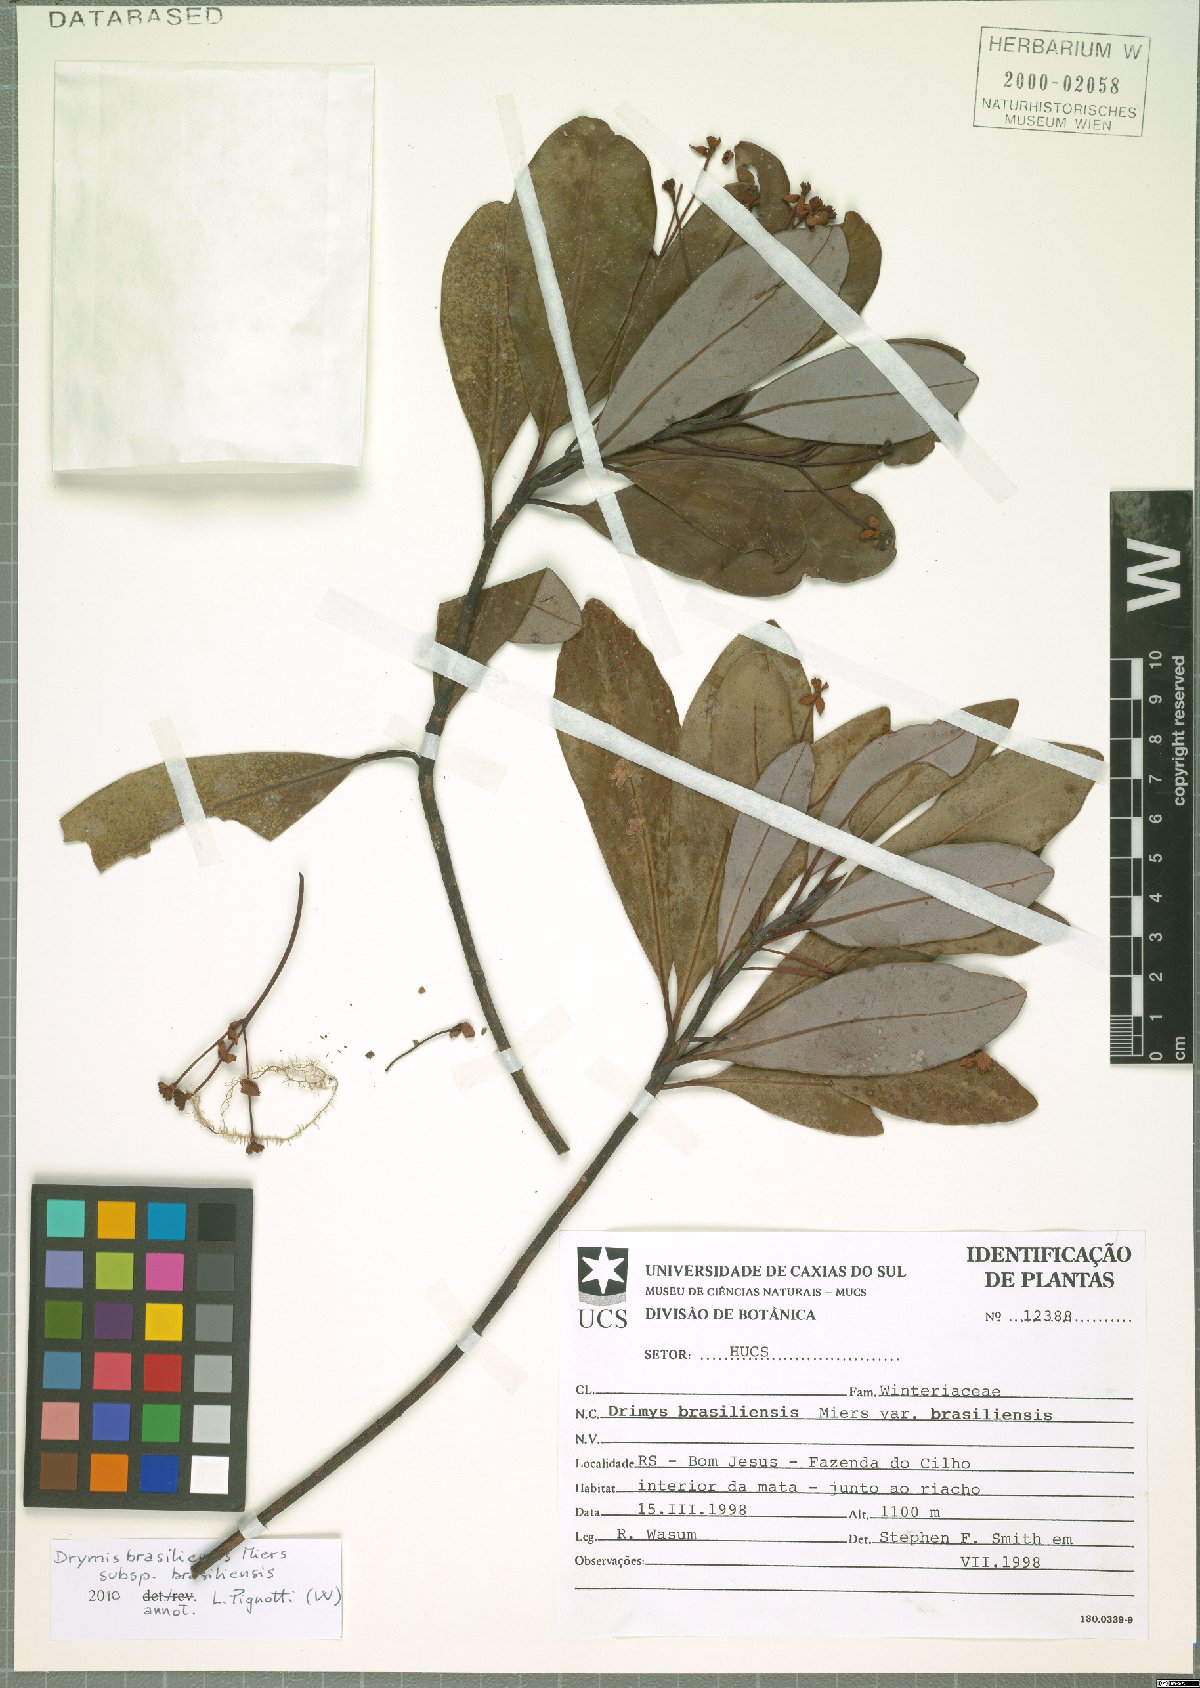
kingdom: Plantae
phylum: Tracheophyta
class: Magnoliopsida
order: Canellales
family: Winteraceae
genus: Drimys
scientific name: Drimys brasiliensis
